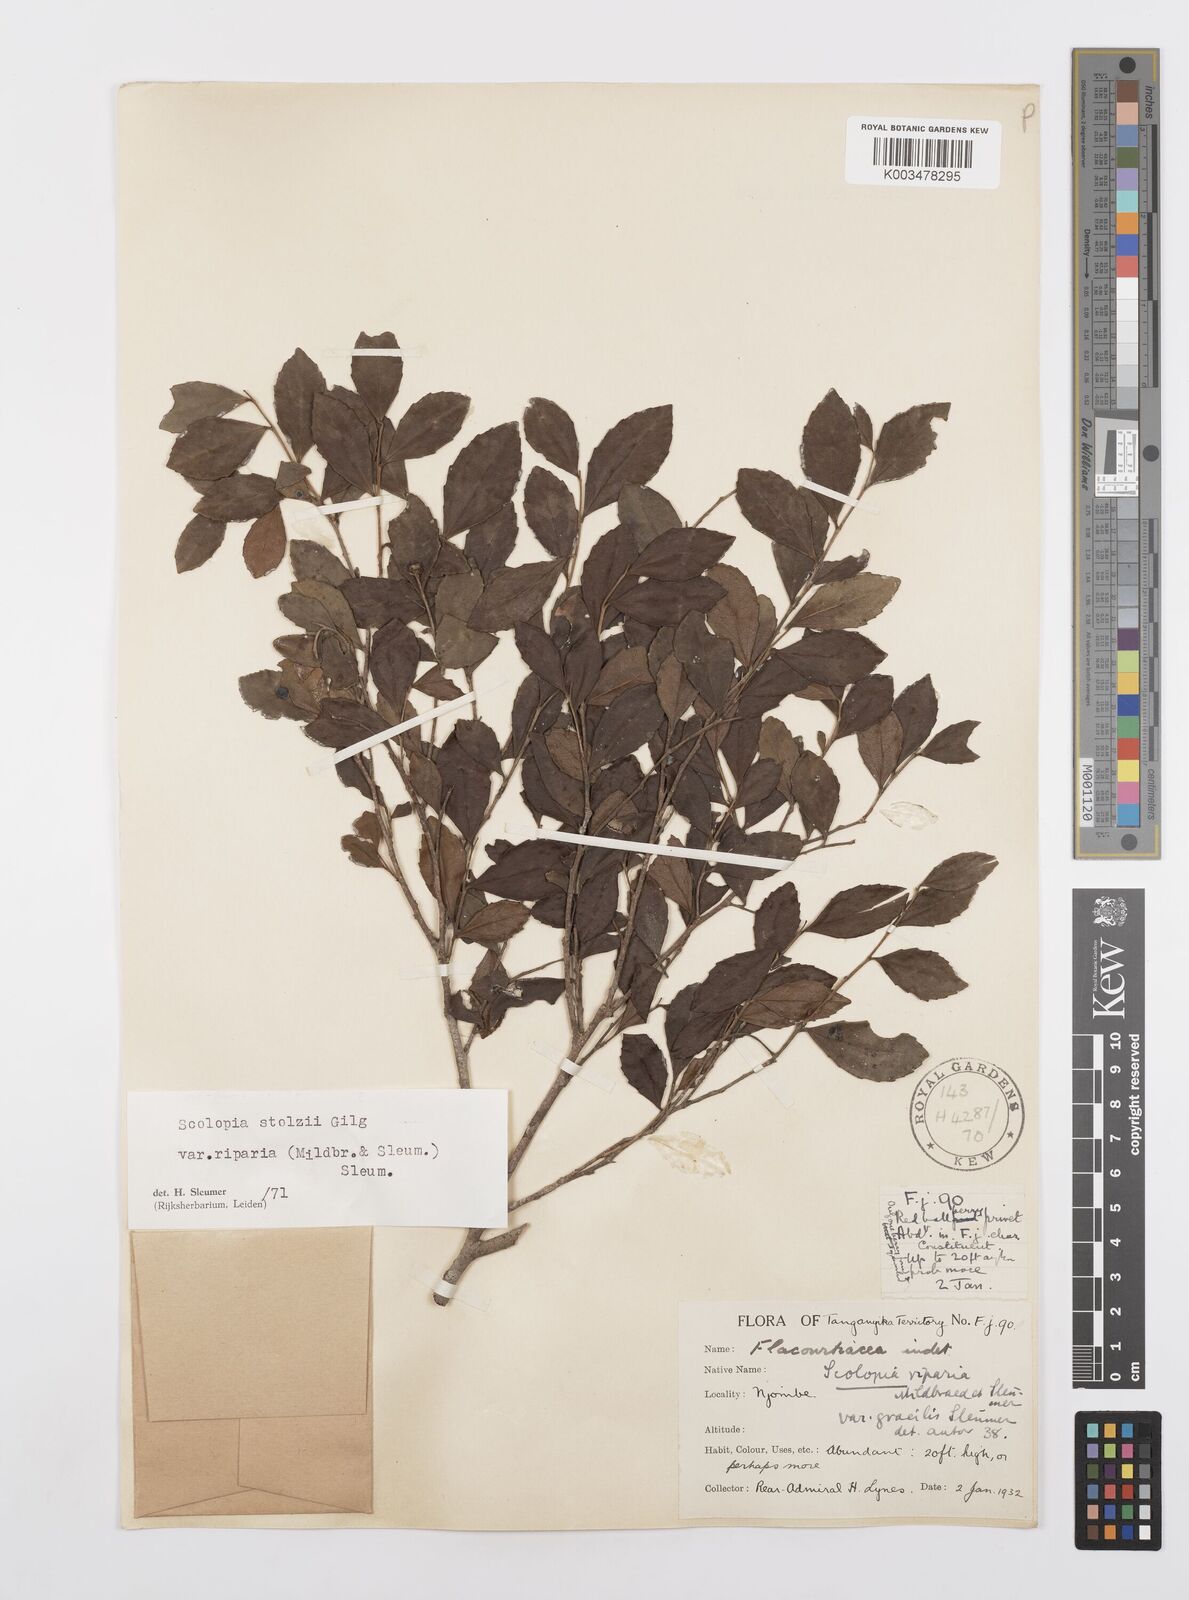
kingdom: Plantae
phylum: Tracheophyta
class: Magnoliopsida
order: Malpighiales
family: Salicaceae
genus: Scolopia
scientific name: Scolopia stolzii
